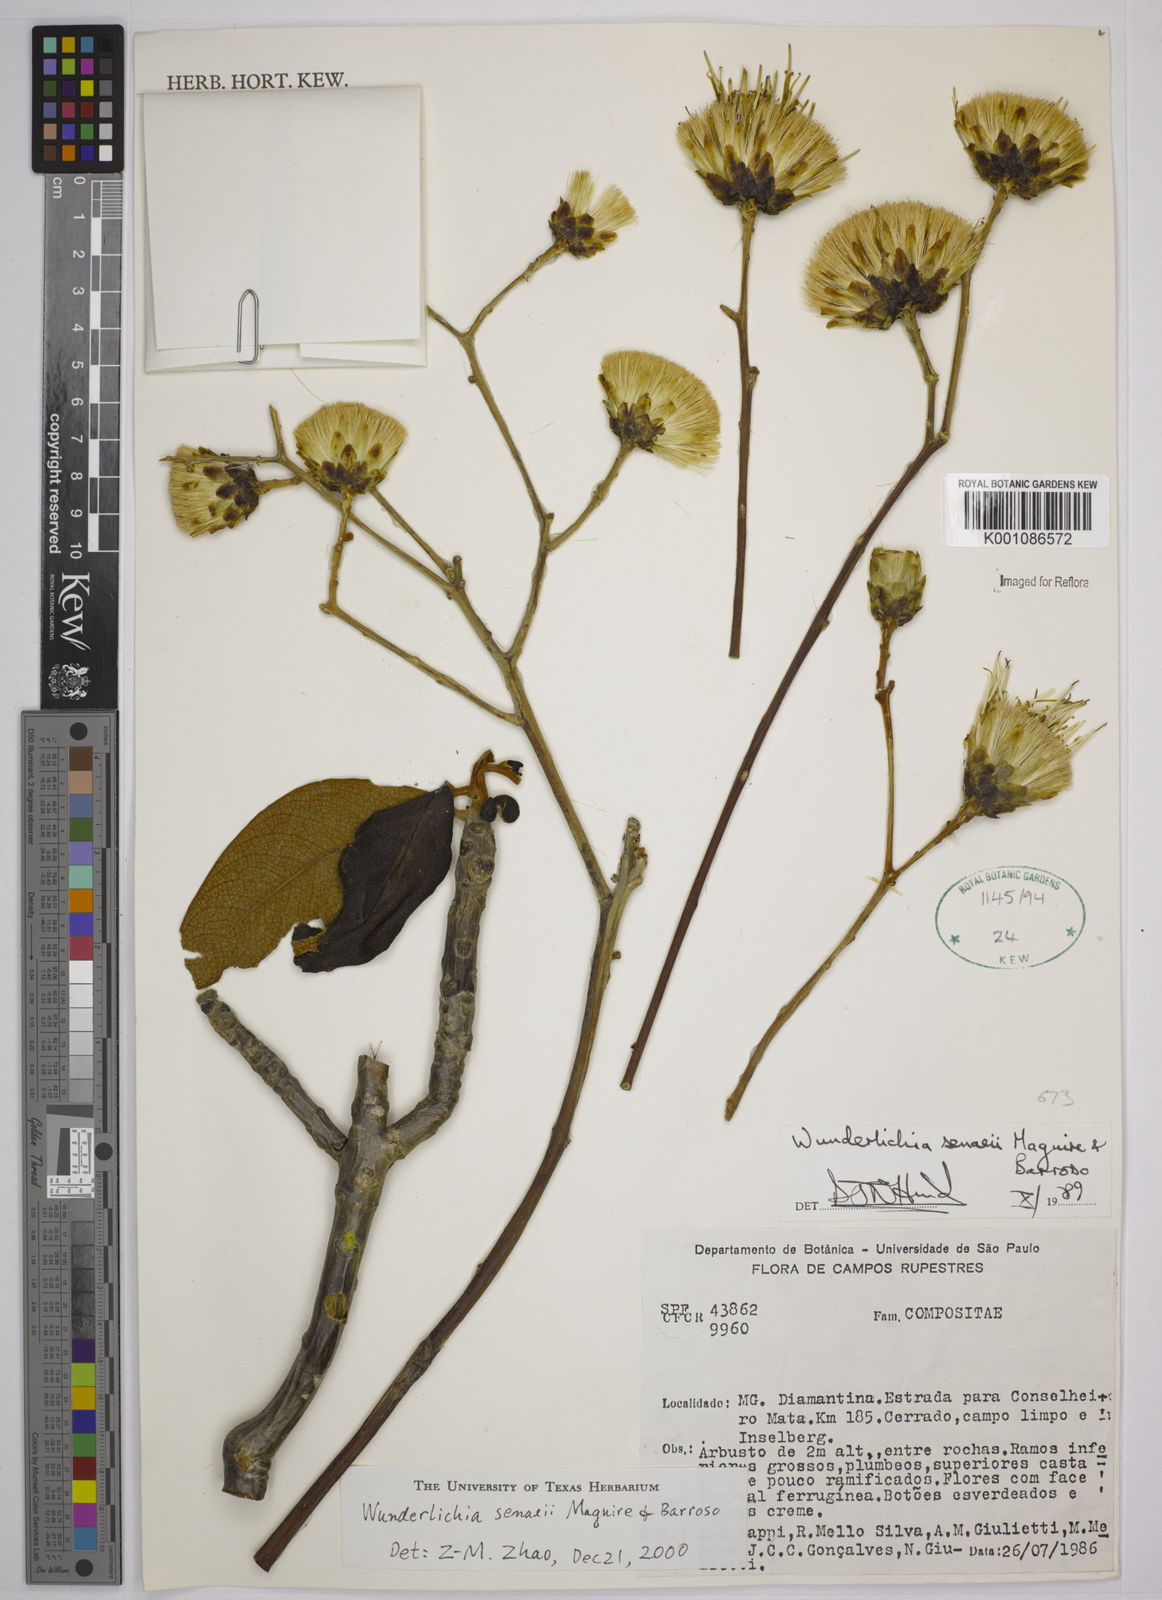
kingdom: Plantae
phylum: Tracheophyta
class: Magnoliopsida
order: Asterales
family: Asteraceae
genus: Wunderlichia
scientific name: Wunderlichia
